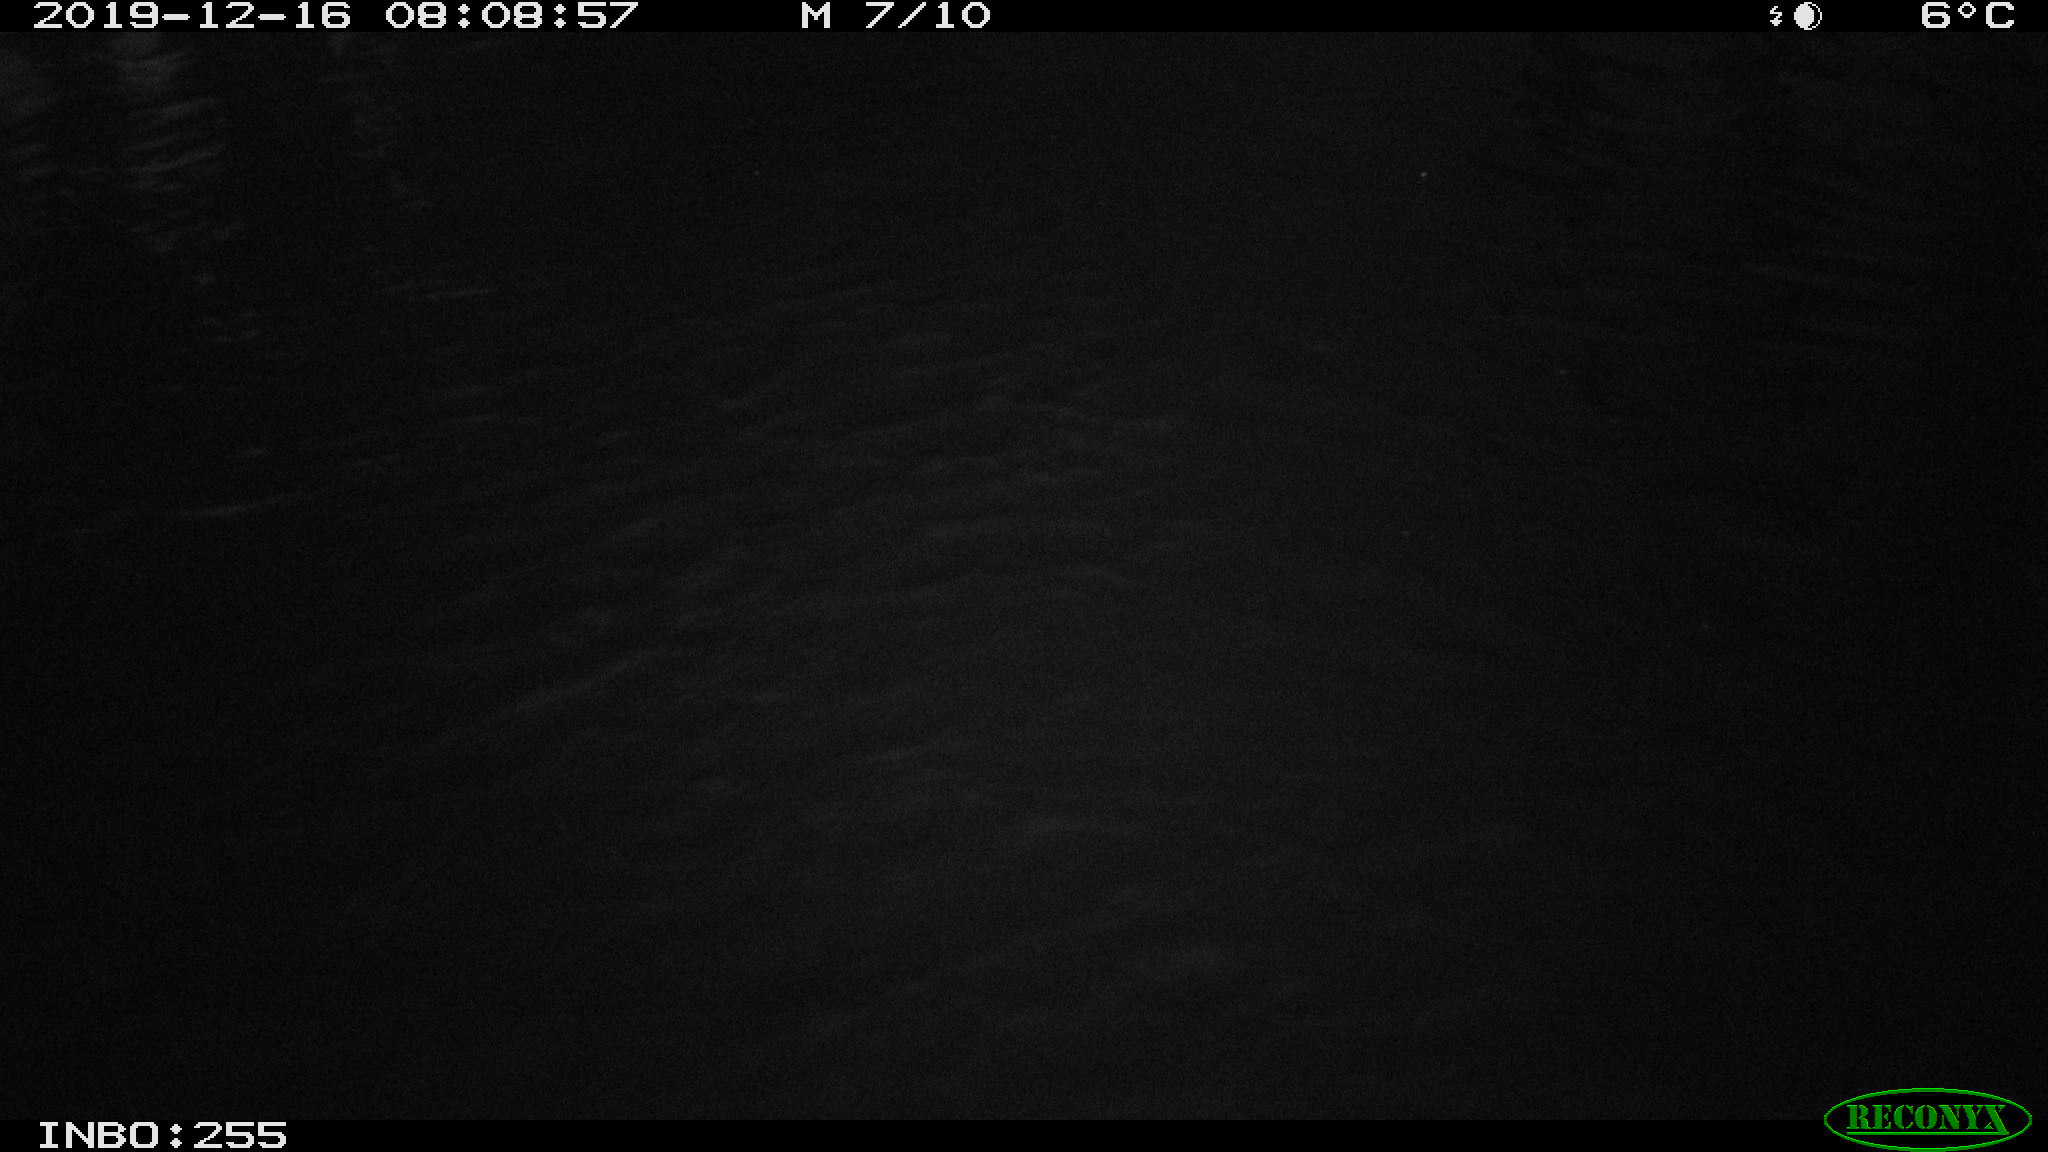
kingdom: Animalia
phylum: Chordata
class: Aves
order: Anseriformes
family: Anatidae
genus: Anas
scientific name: Anas platyrhynchos
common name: Mallard
